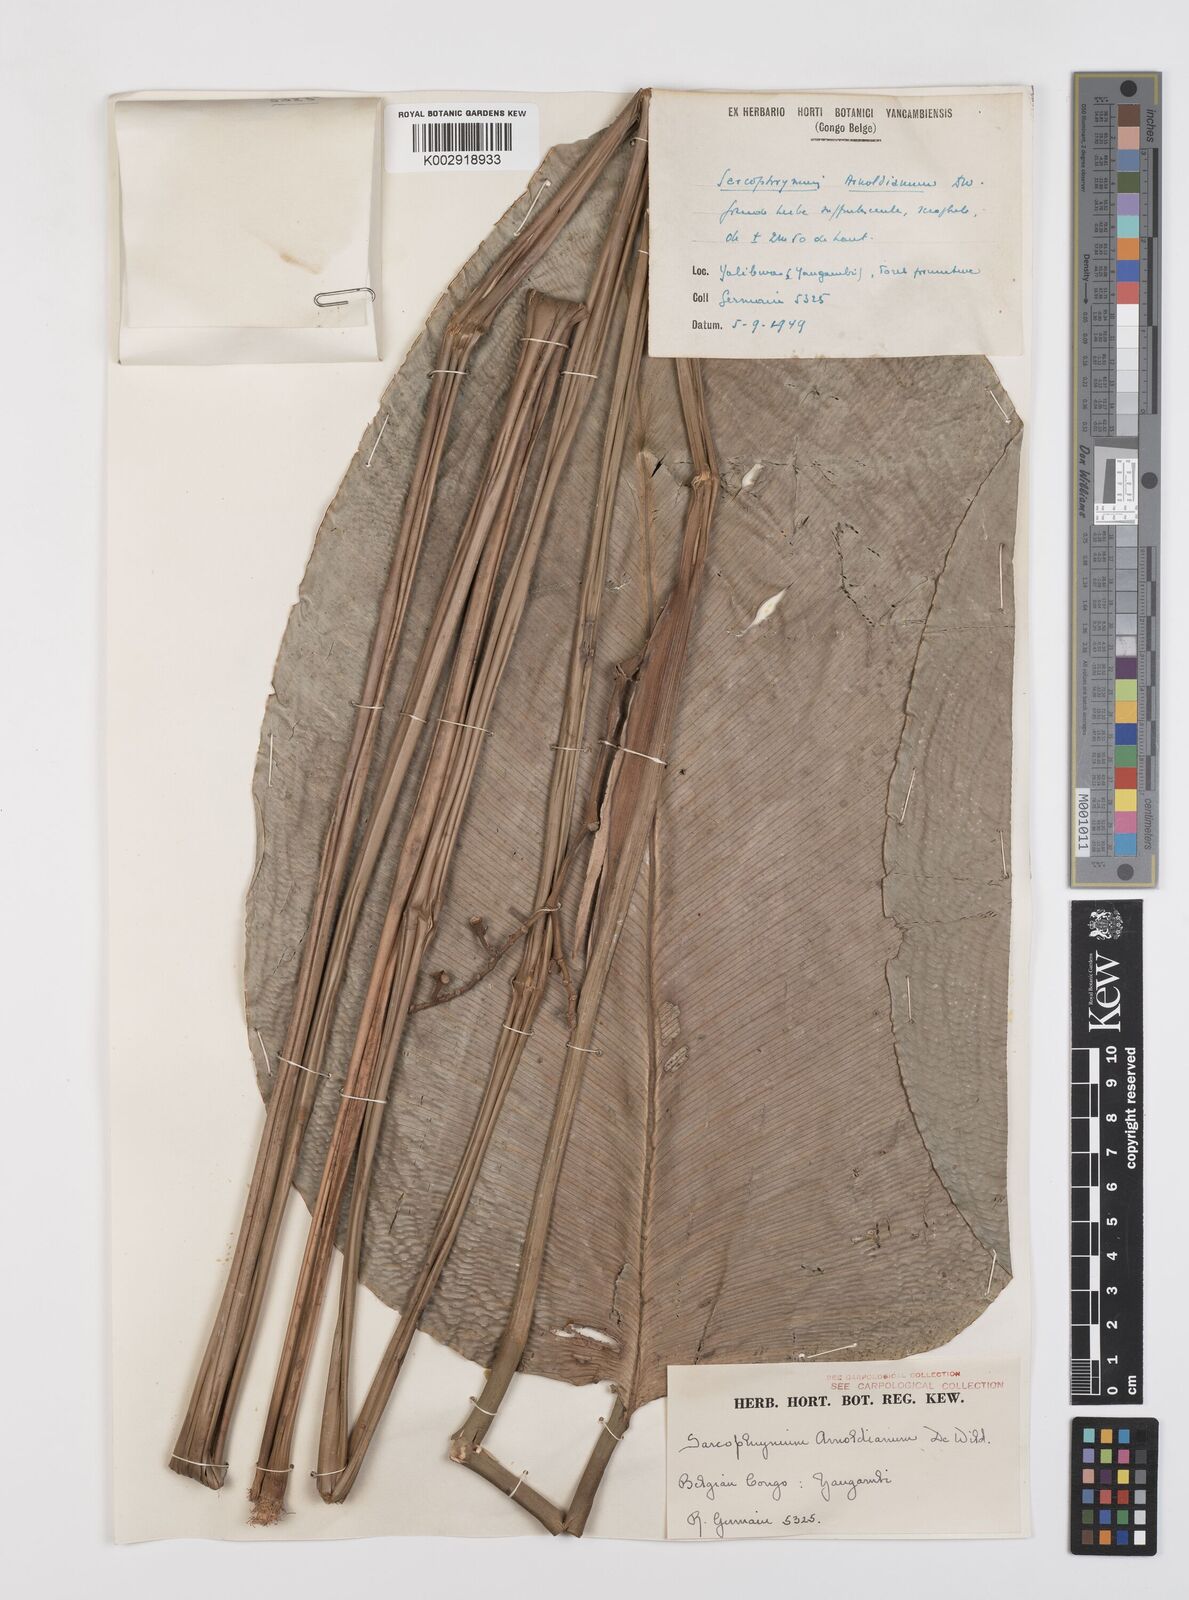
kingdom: Plantae
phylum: Tracheophyta
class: Liliopsida
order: Zingiberales
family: Marantaceae
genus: Megaphrynium
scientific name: Megaphrynium
